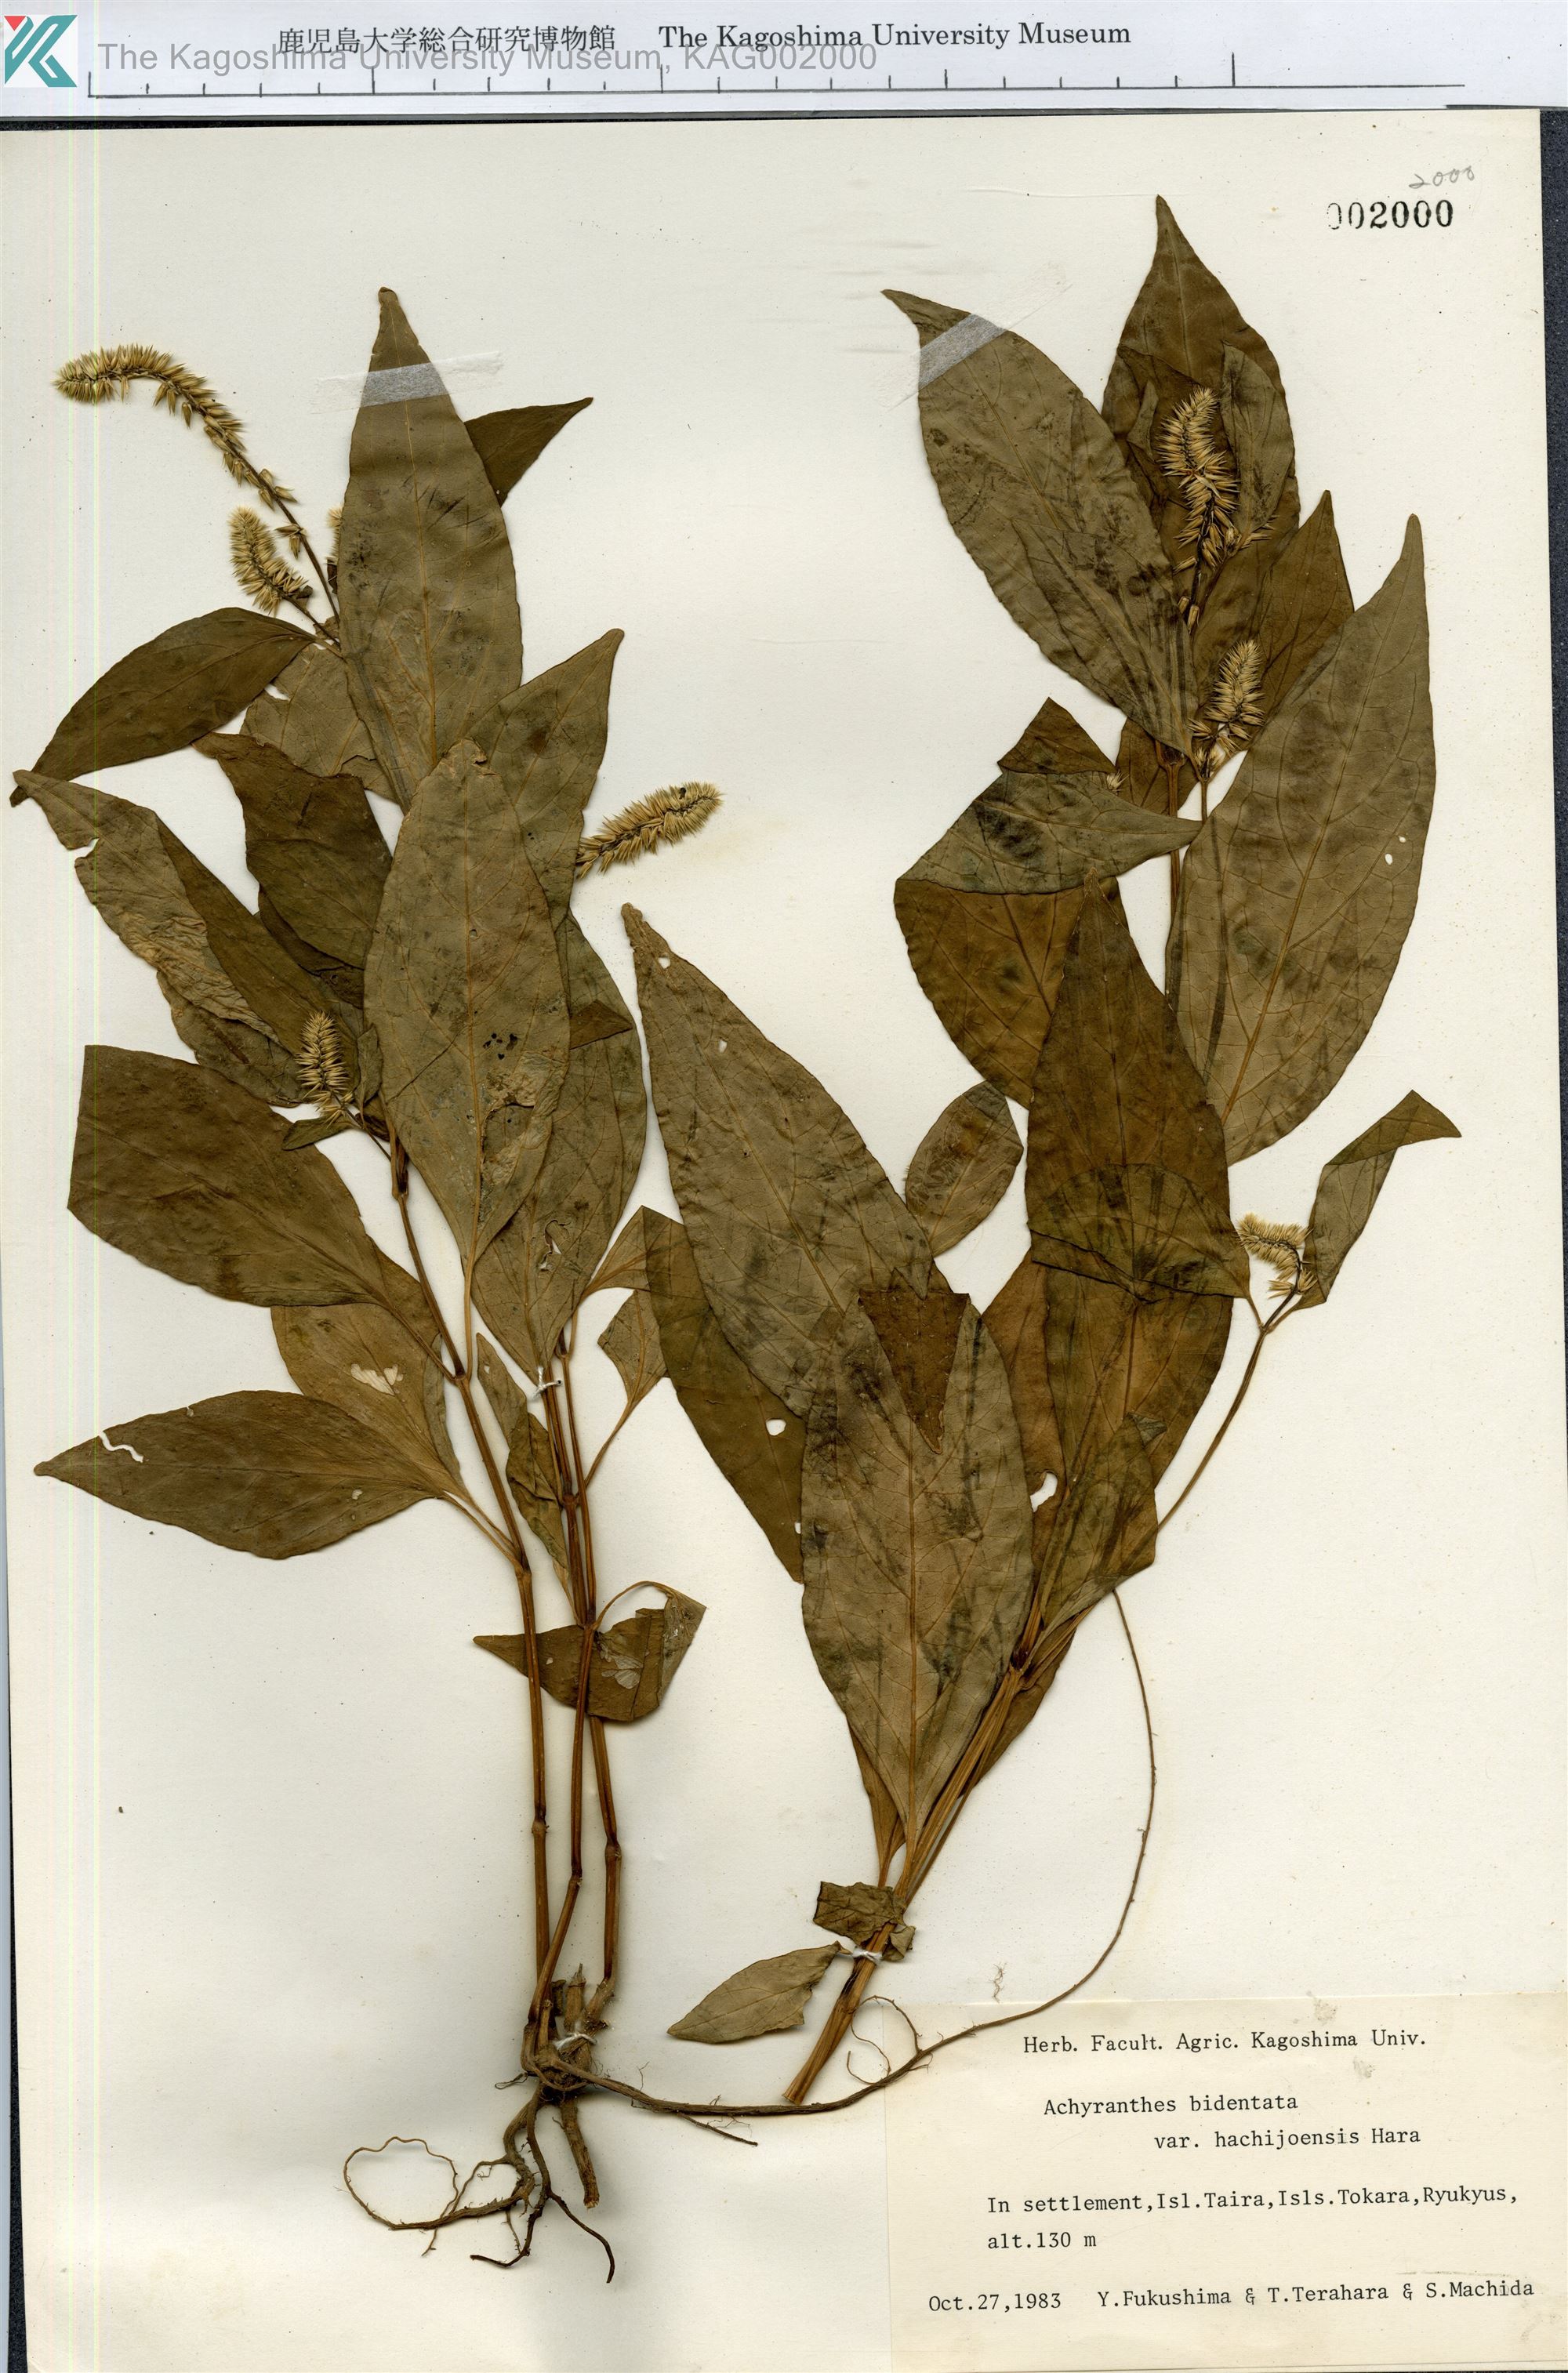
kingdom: Plantae
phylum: Tracheophyta
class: Magnoliopsida
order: Caryophyllales
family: Amaranthaceae
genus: Achyranthes
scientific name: Achyranthes bidentata
